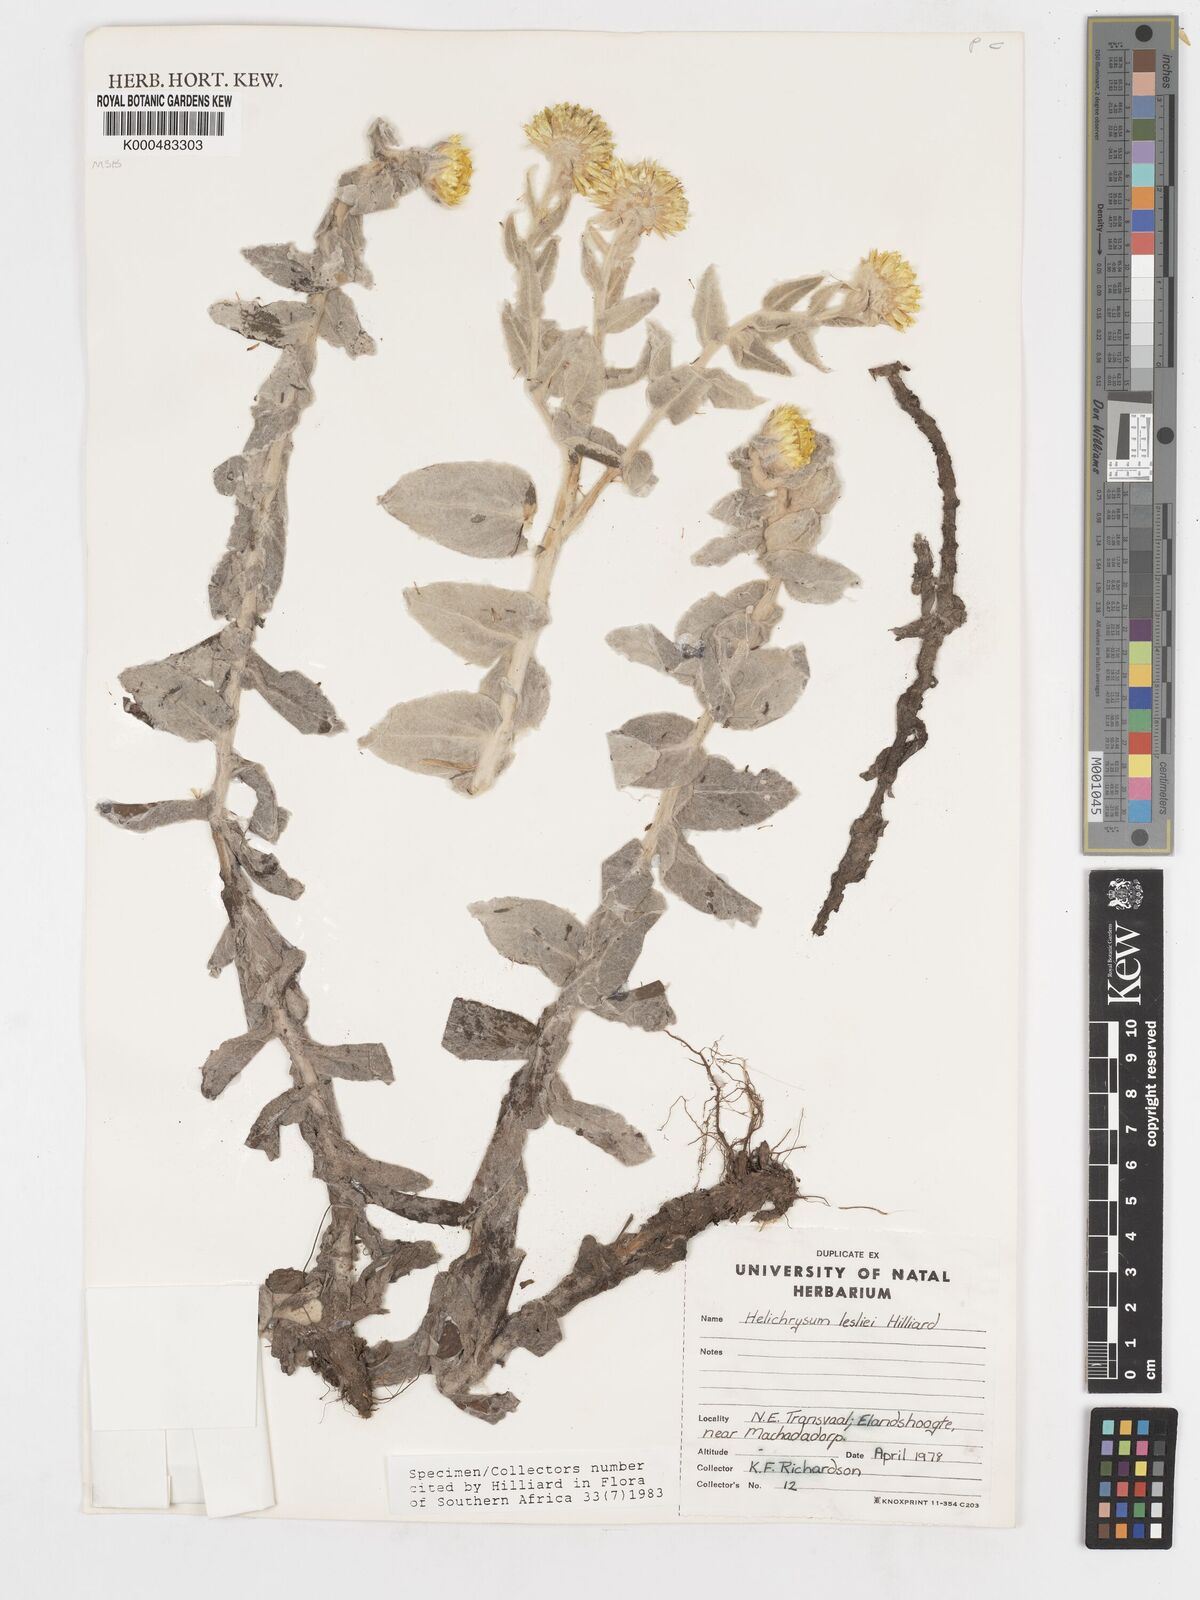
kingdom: Plantae
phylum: Tracheophyta
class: Magnoliopsida
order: Asterales
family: Asteraceae
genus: Helichrysum
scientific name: Helichrysum lesliei
